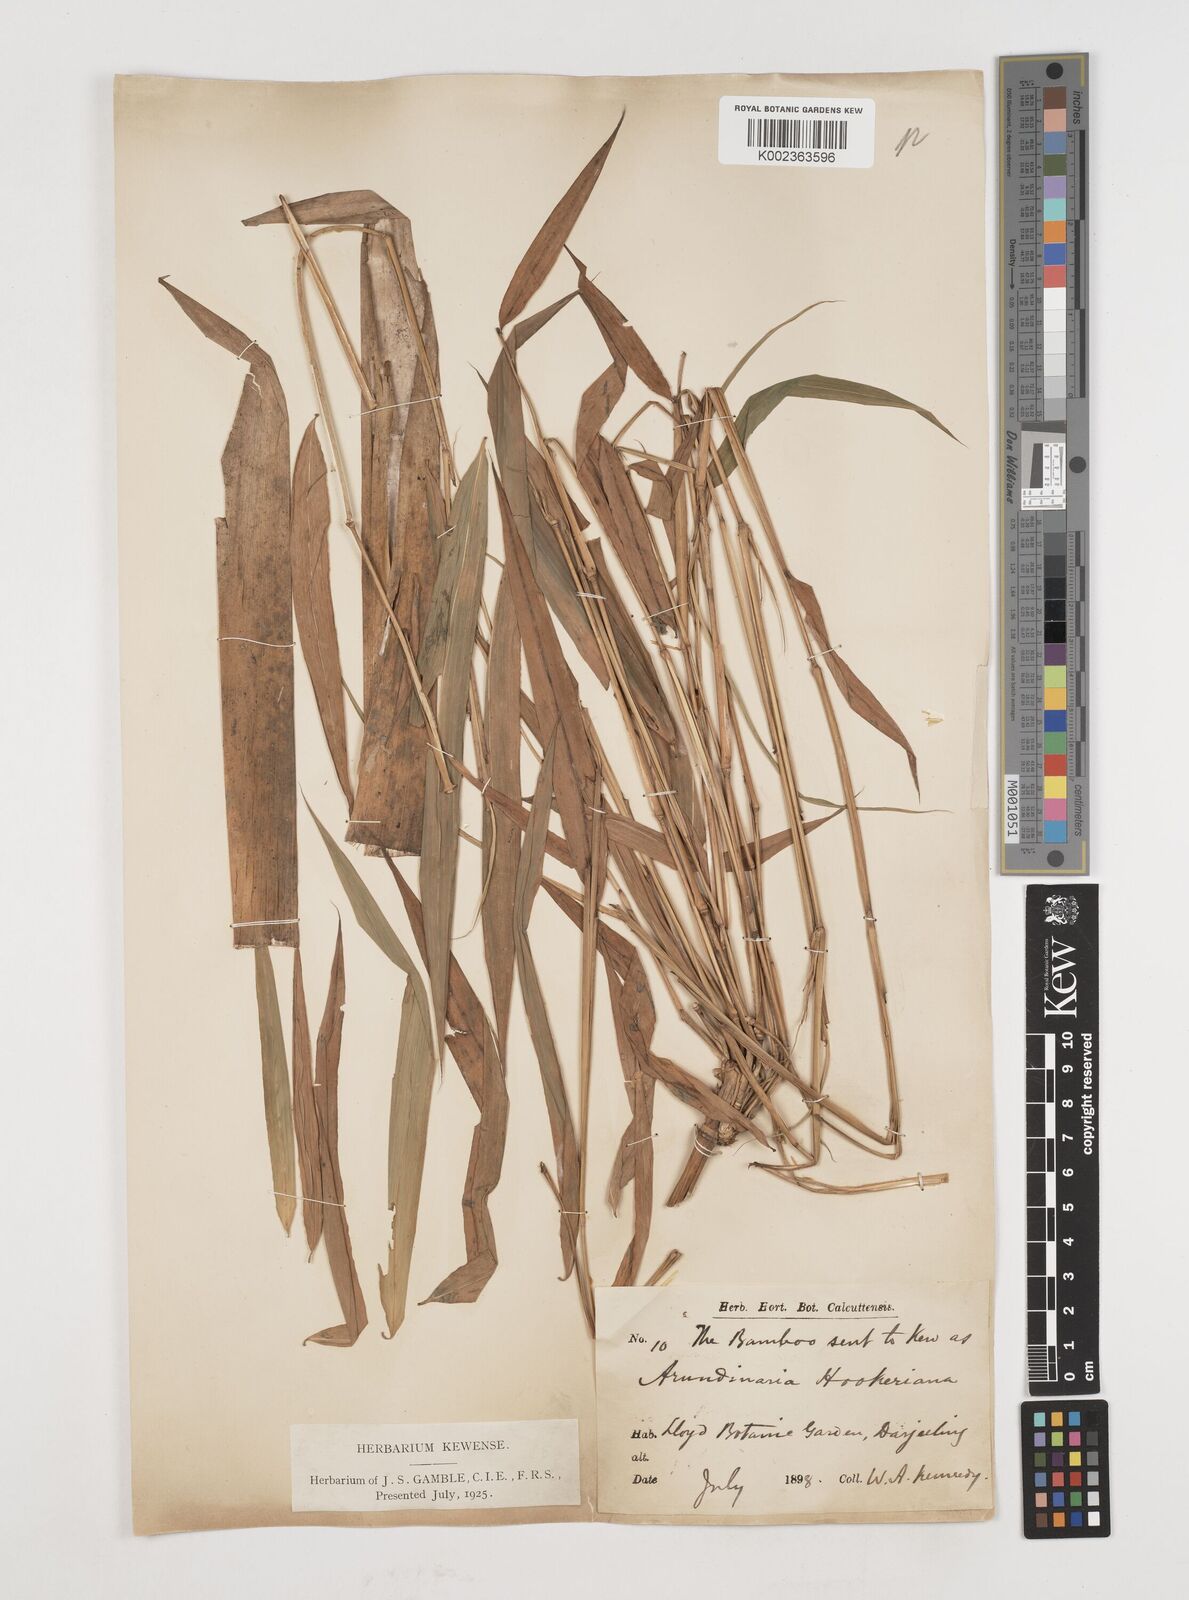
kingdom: Plantae
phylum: Tracheophyta
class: Liliopsida
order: Poales
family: Poaceae
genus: Himalayacalamus
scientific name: Himalayacalamus hookerianus
